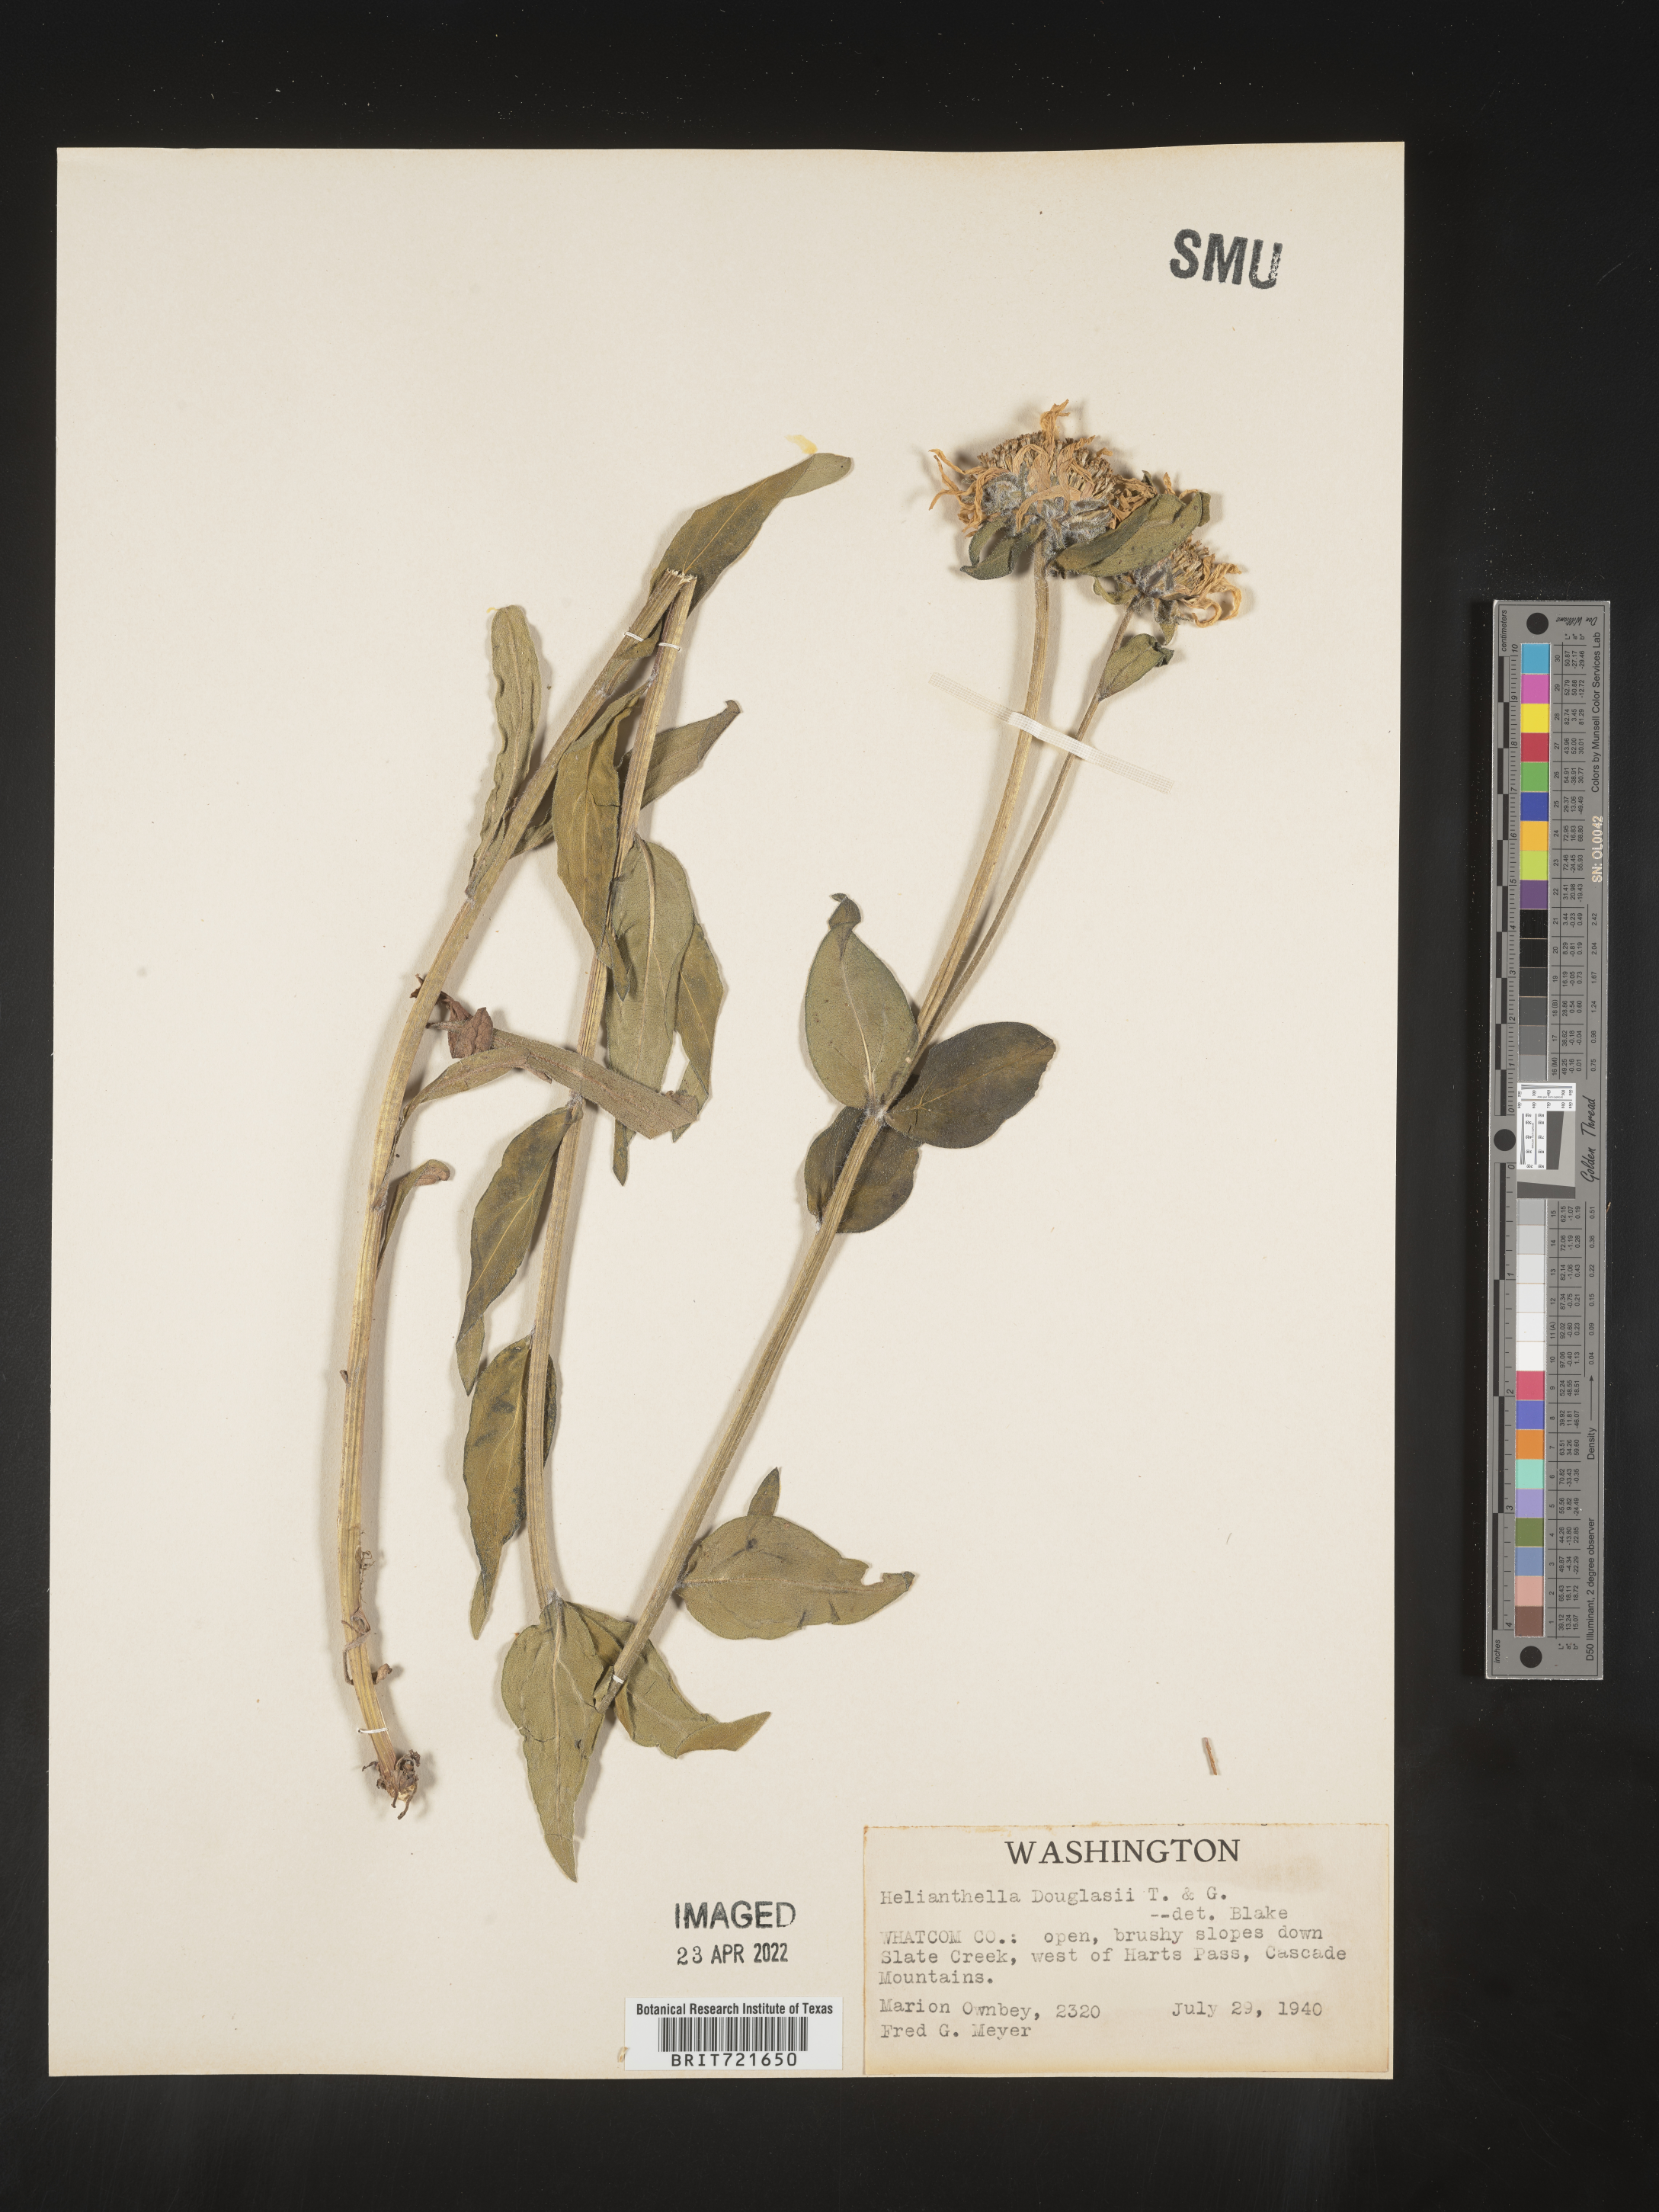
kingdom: Plantae
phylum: Tracheophyta
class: Magnoliopsida
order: Asterales
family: Asteraceae
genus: Helianthella
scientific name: Helianthella
